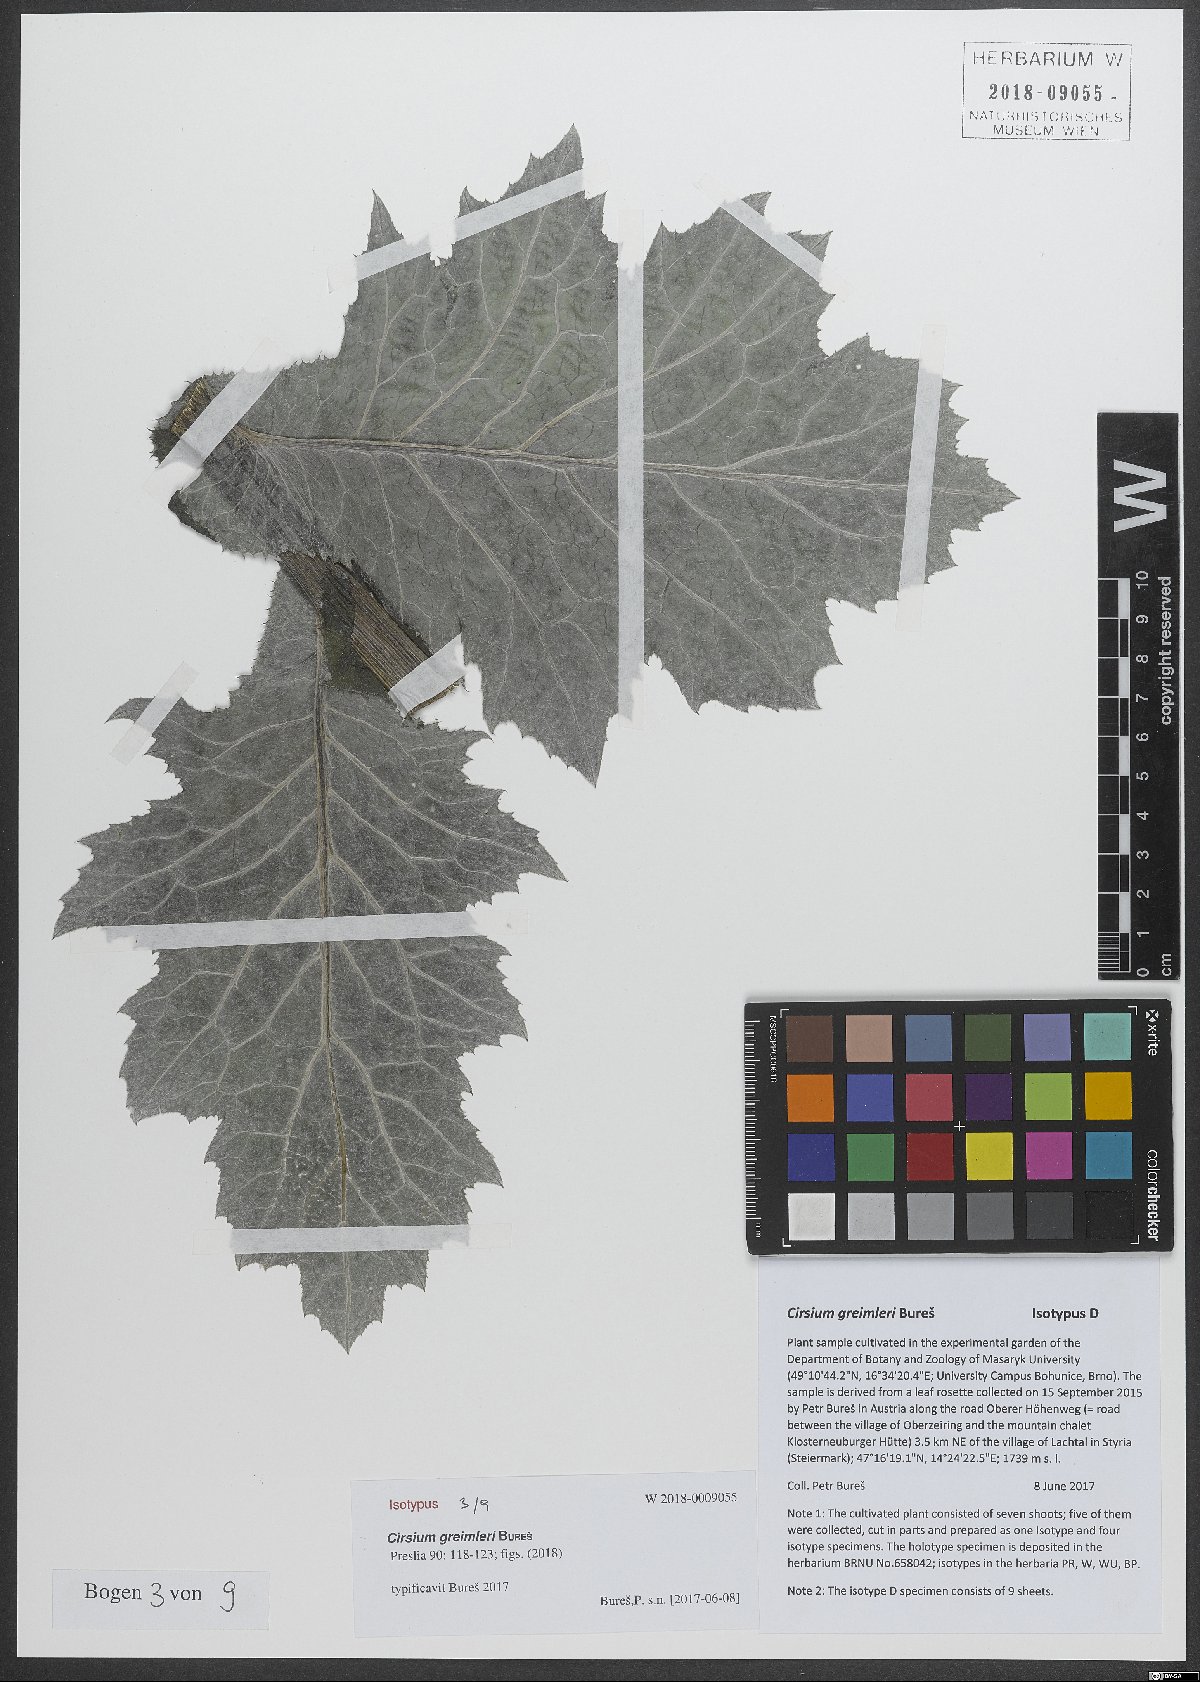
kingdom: Plantae
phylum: Tracheophyta
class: Magnoliopsida
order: Asterales
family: Asteraceae
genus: Cirsium
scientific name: Cirsium greimleri
